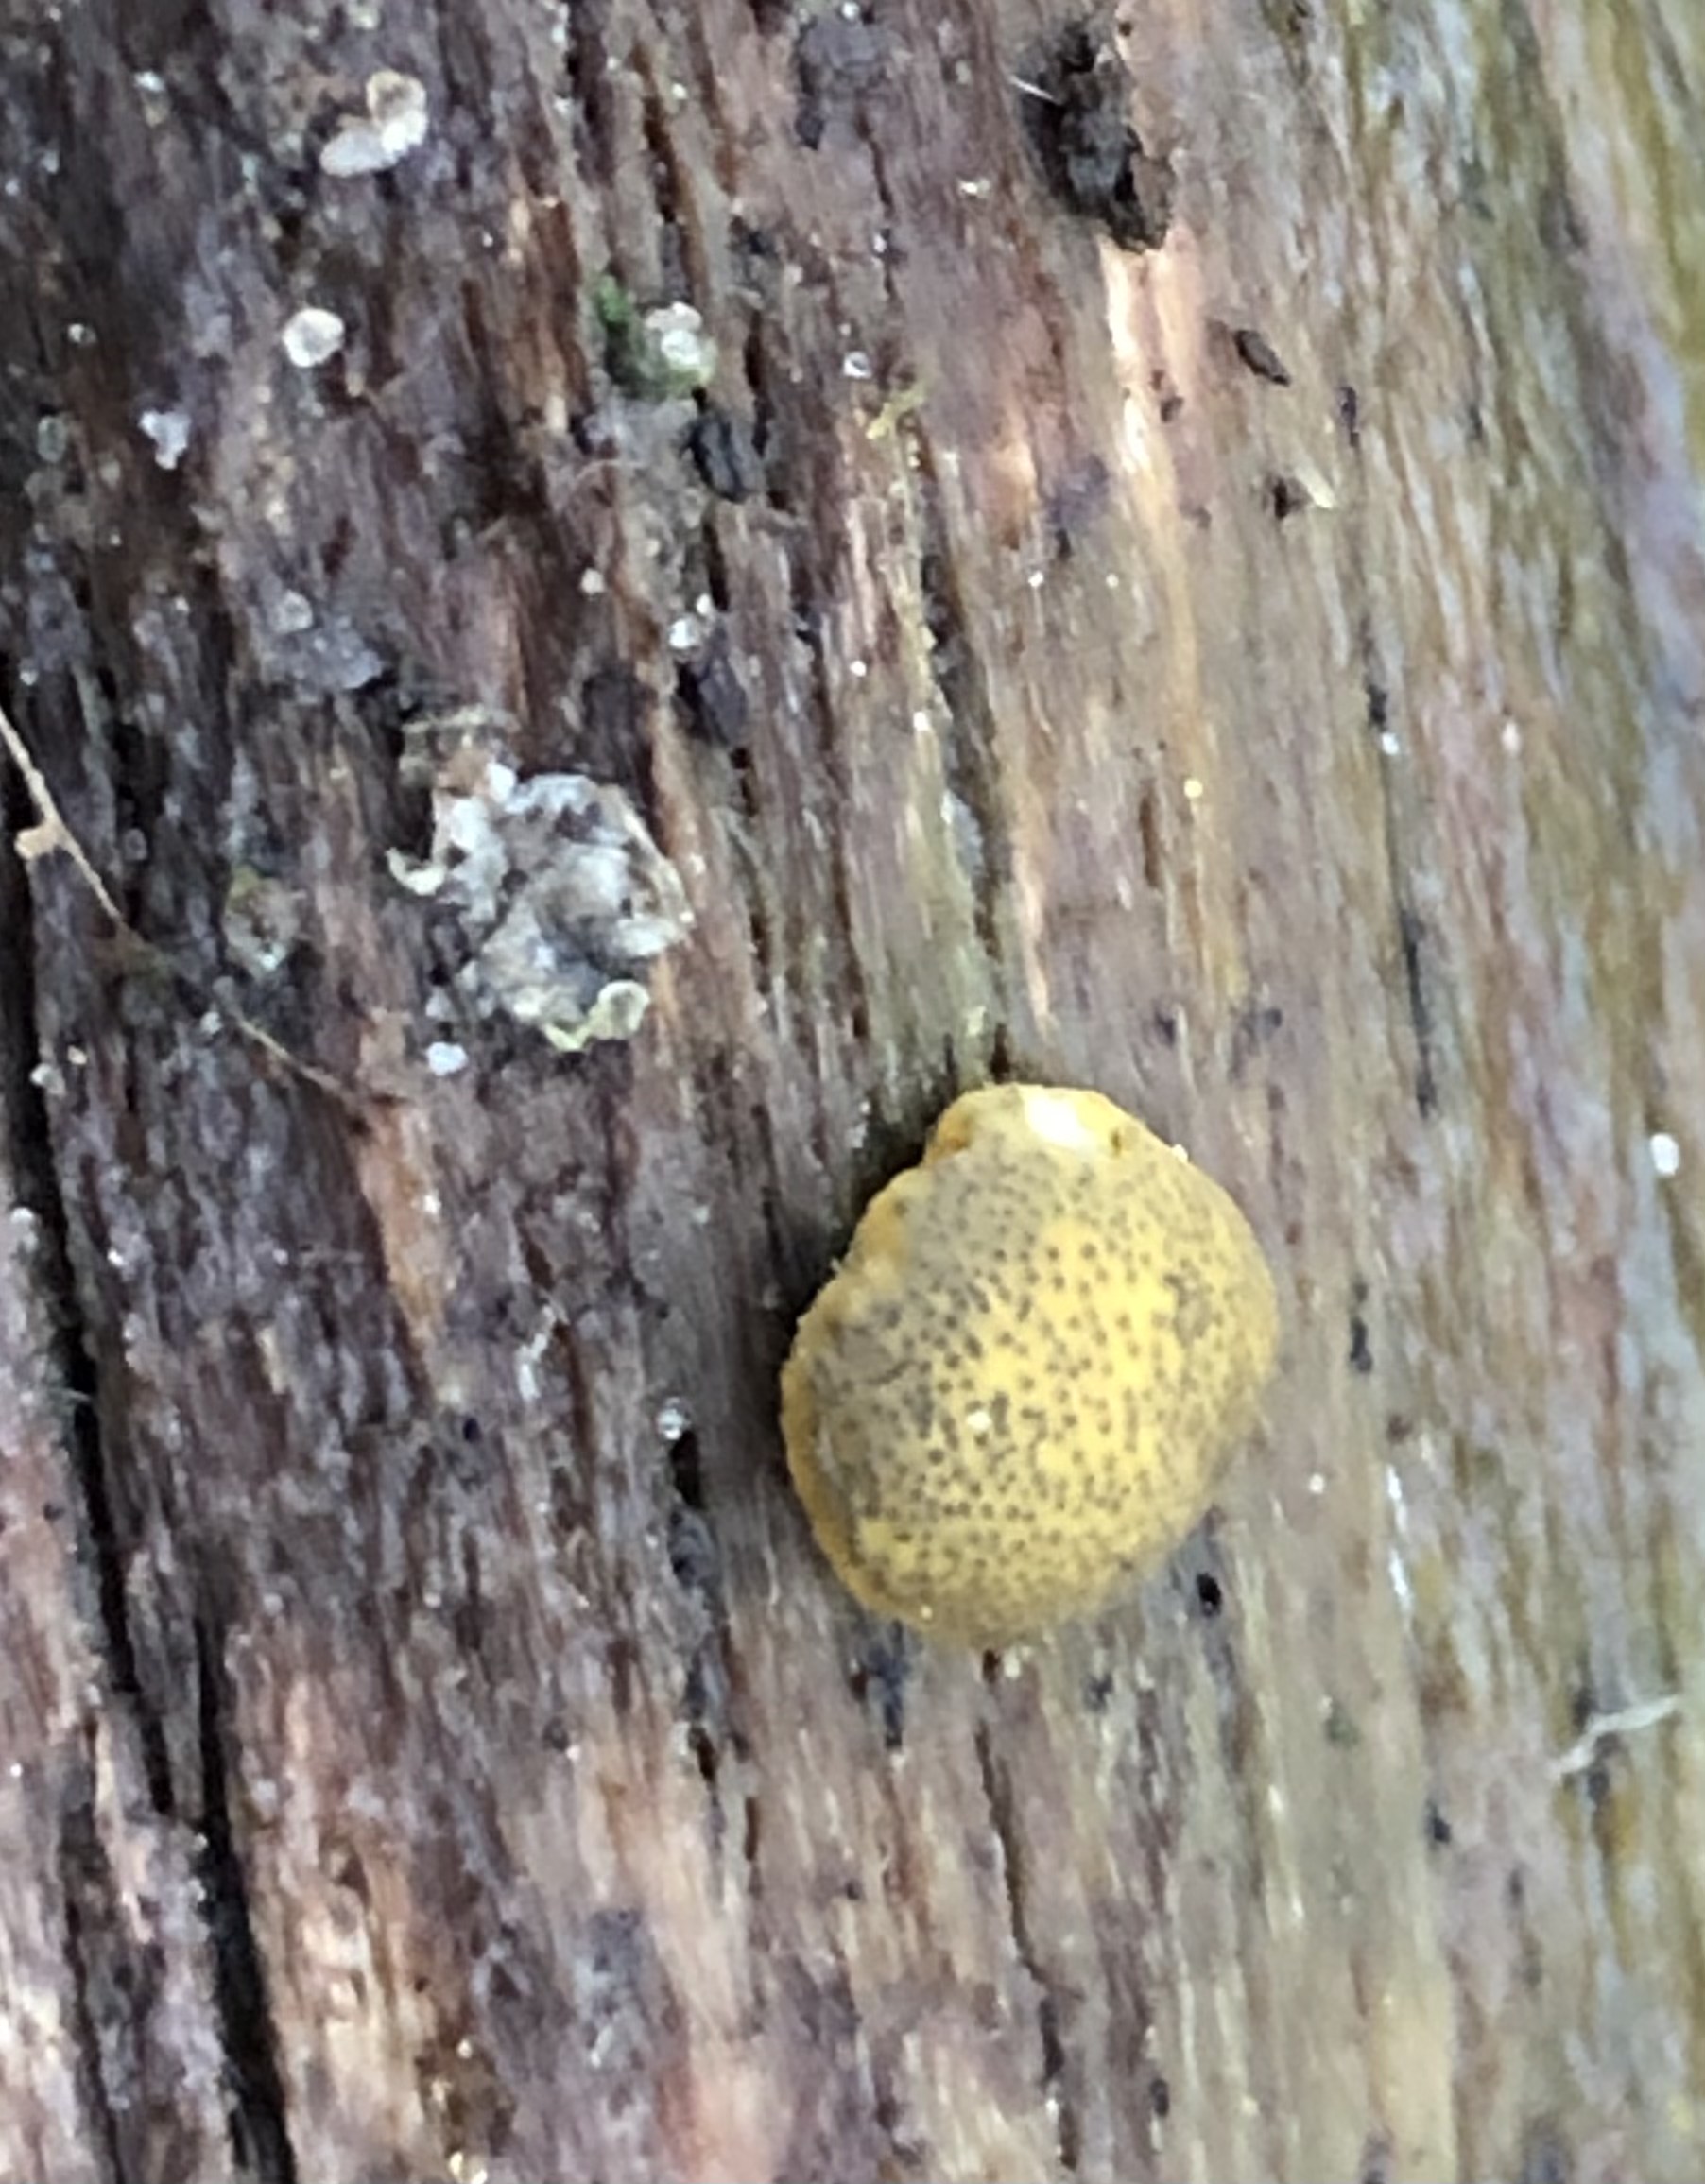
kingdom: Fungi
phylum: Ascomycota
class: Sordariomycetes
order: Hypocreales
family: Hypocreaceae
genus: Trichoderma
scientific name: Trichoderma aureoviride
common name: æggegul kødkerne
